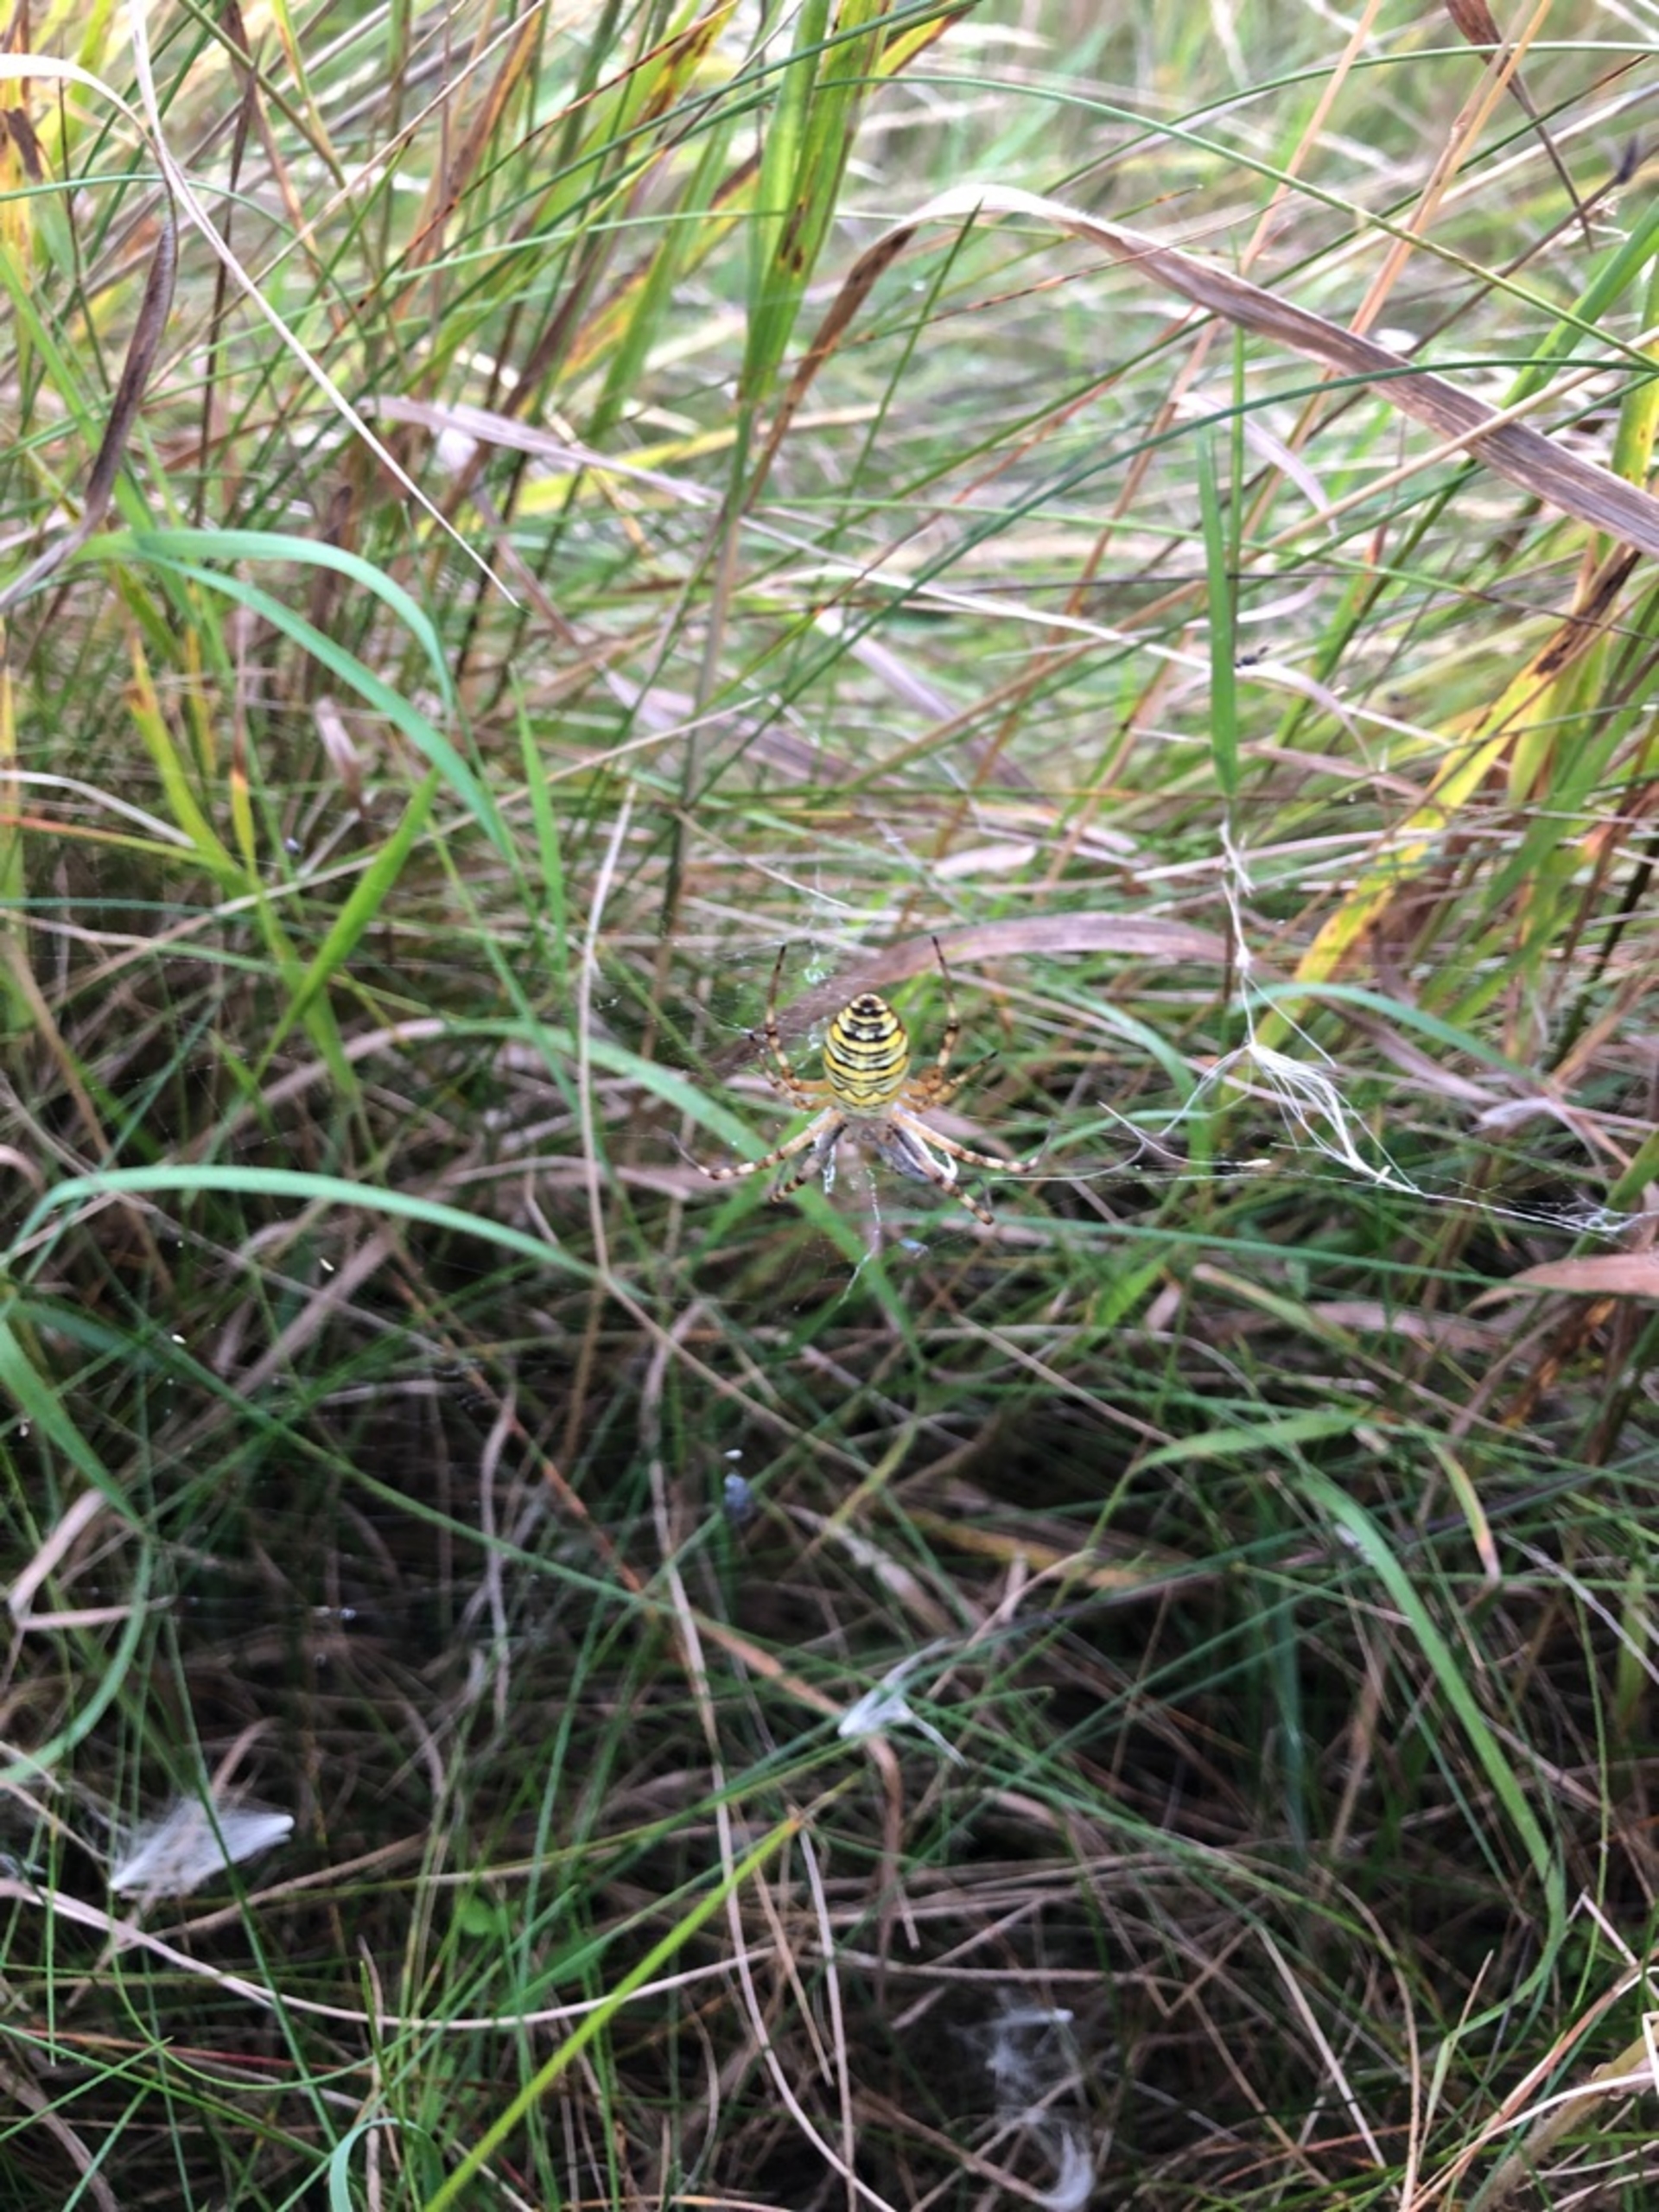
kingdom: Animalia
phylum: Arthropoda
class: Arachnida
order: Araneae
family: Araneidae
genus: Argiope
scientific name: Argiope bruennichi
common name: Hvepseedderkop
